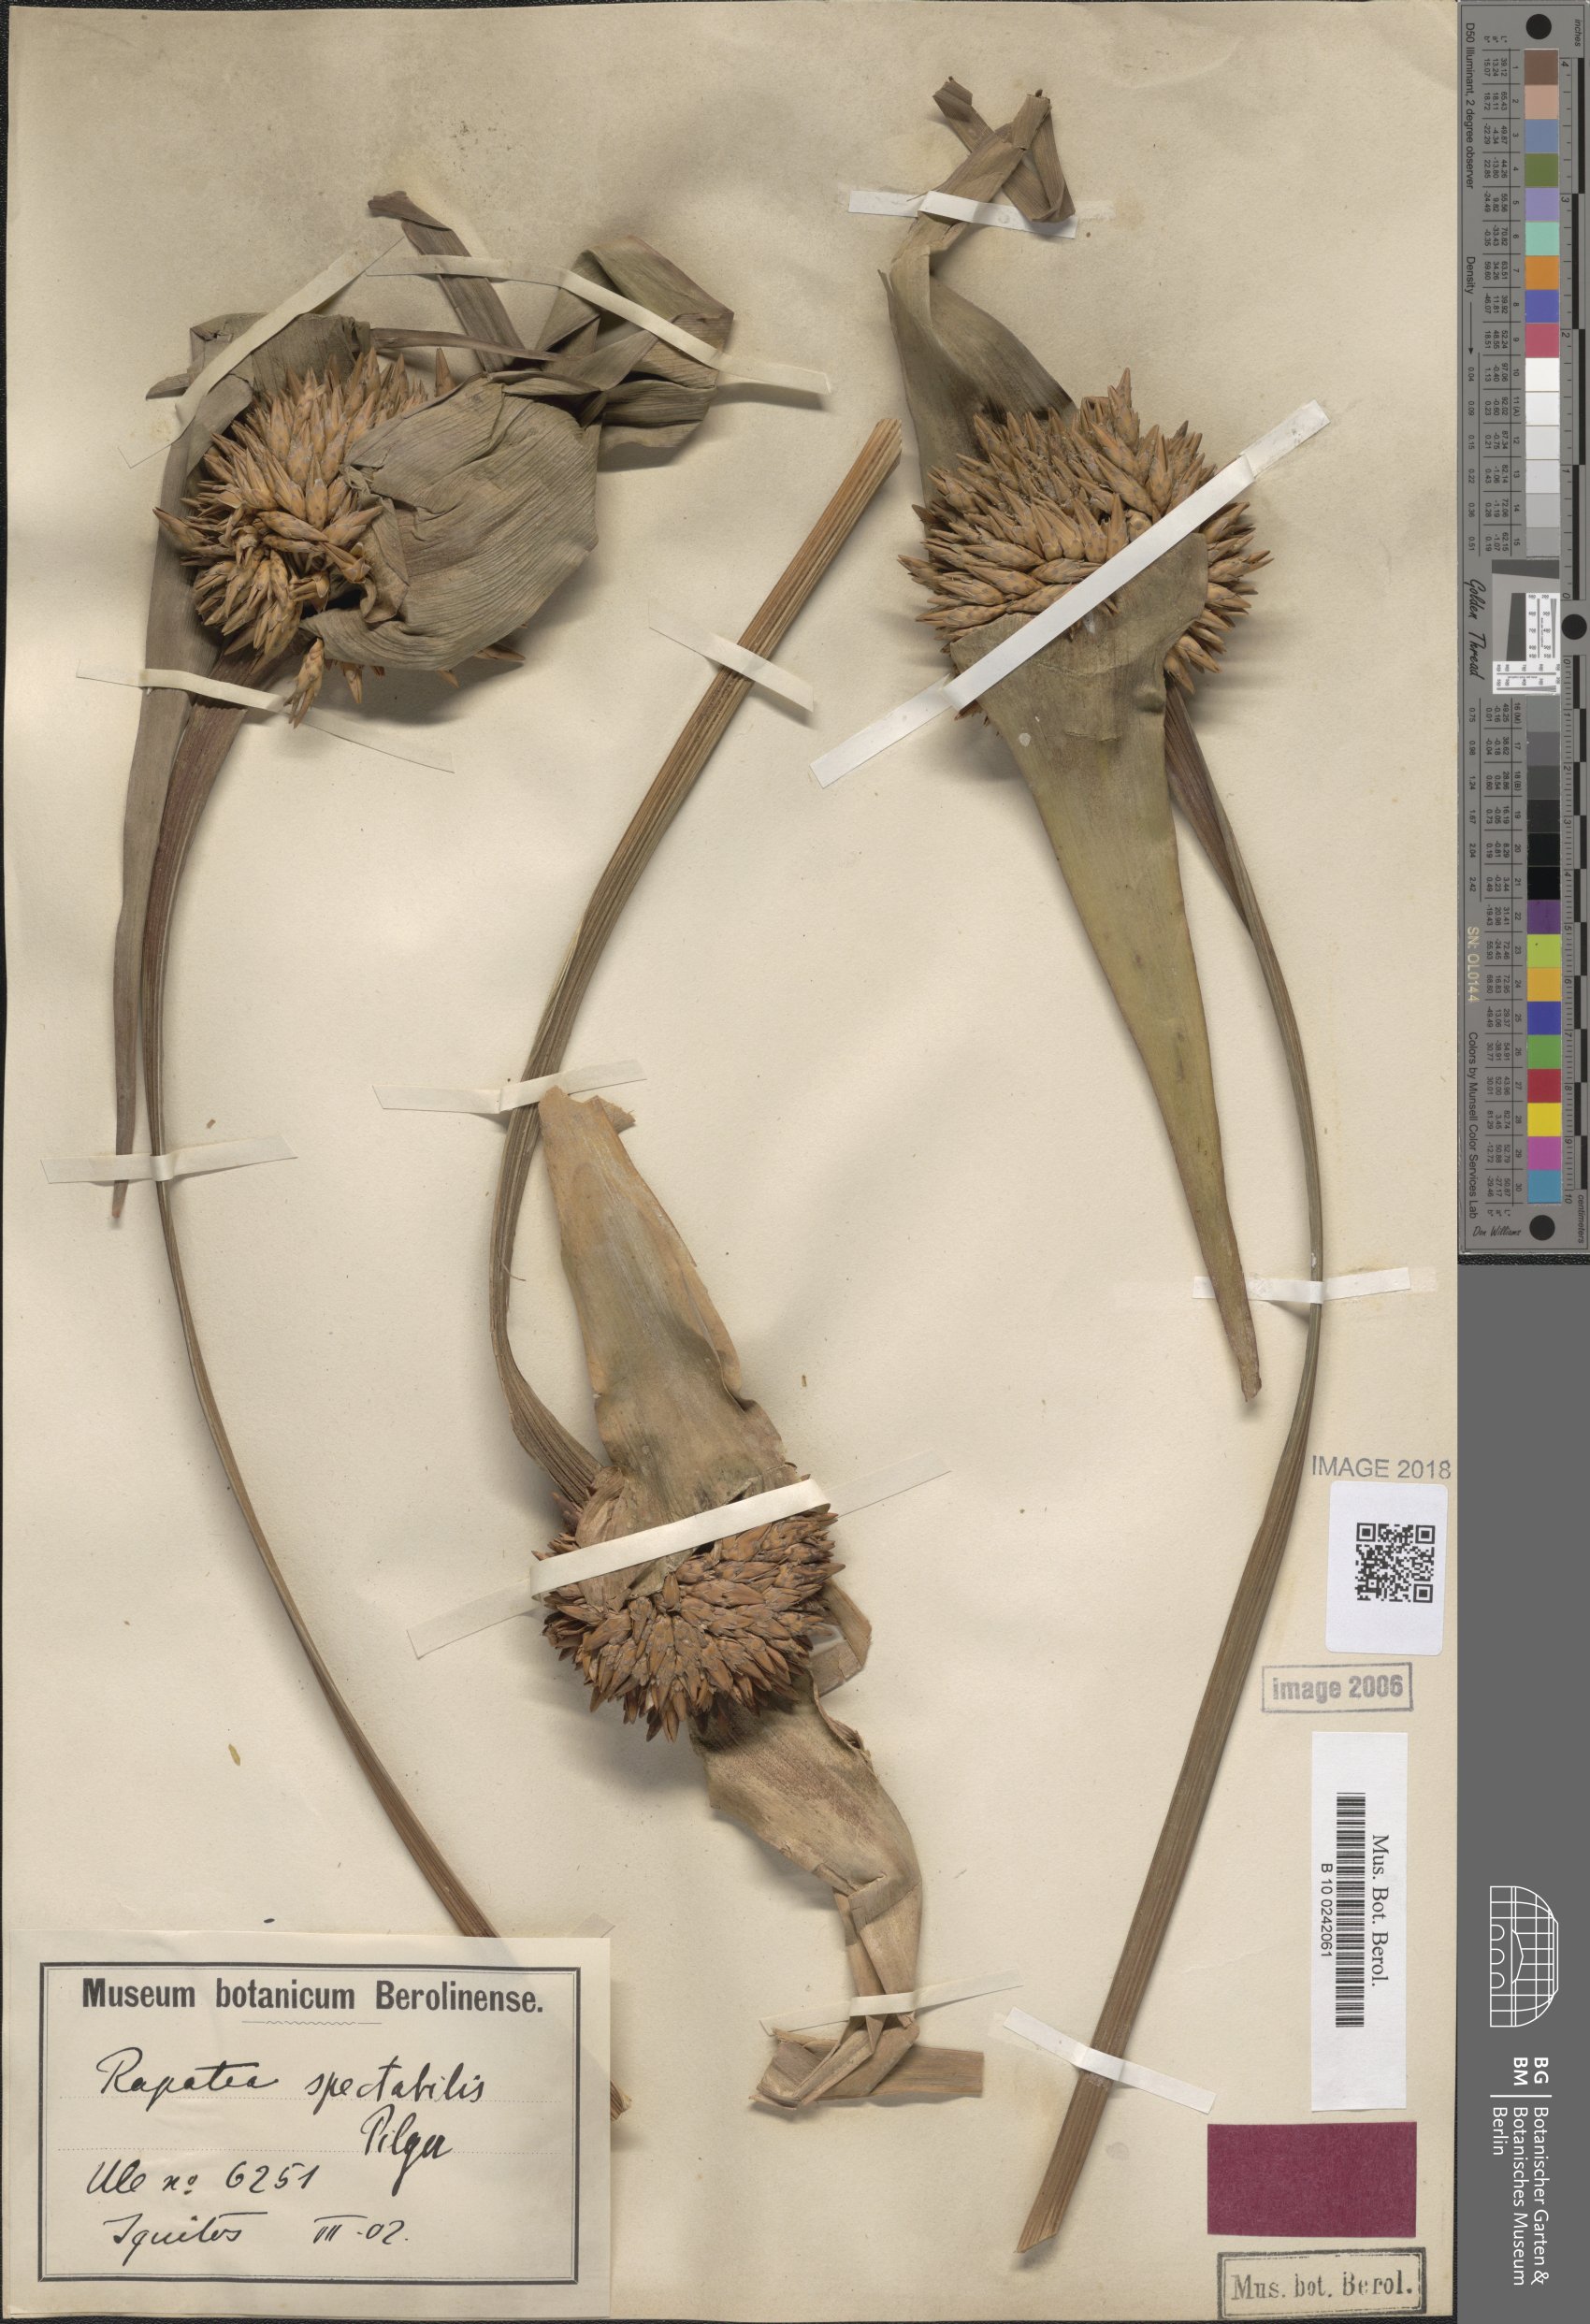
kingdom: Plantae
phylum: Tracheophyta
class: Liliopsida
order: Poales
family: Rapateaceae
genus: Rapatea
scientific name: Rapatea spectabilis
